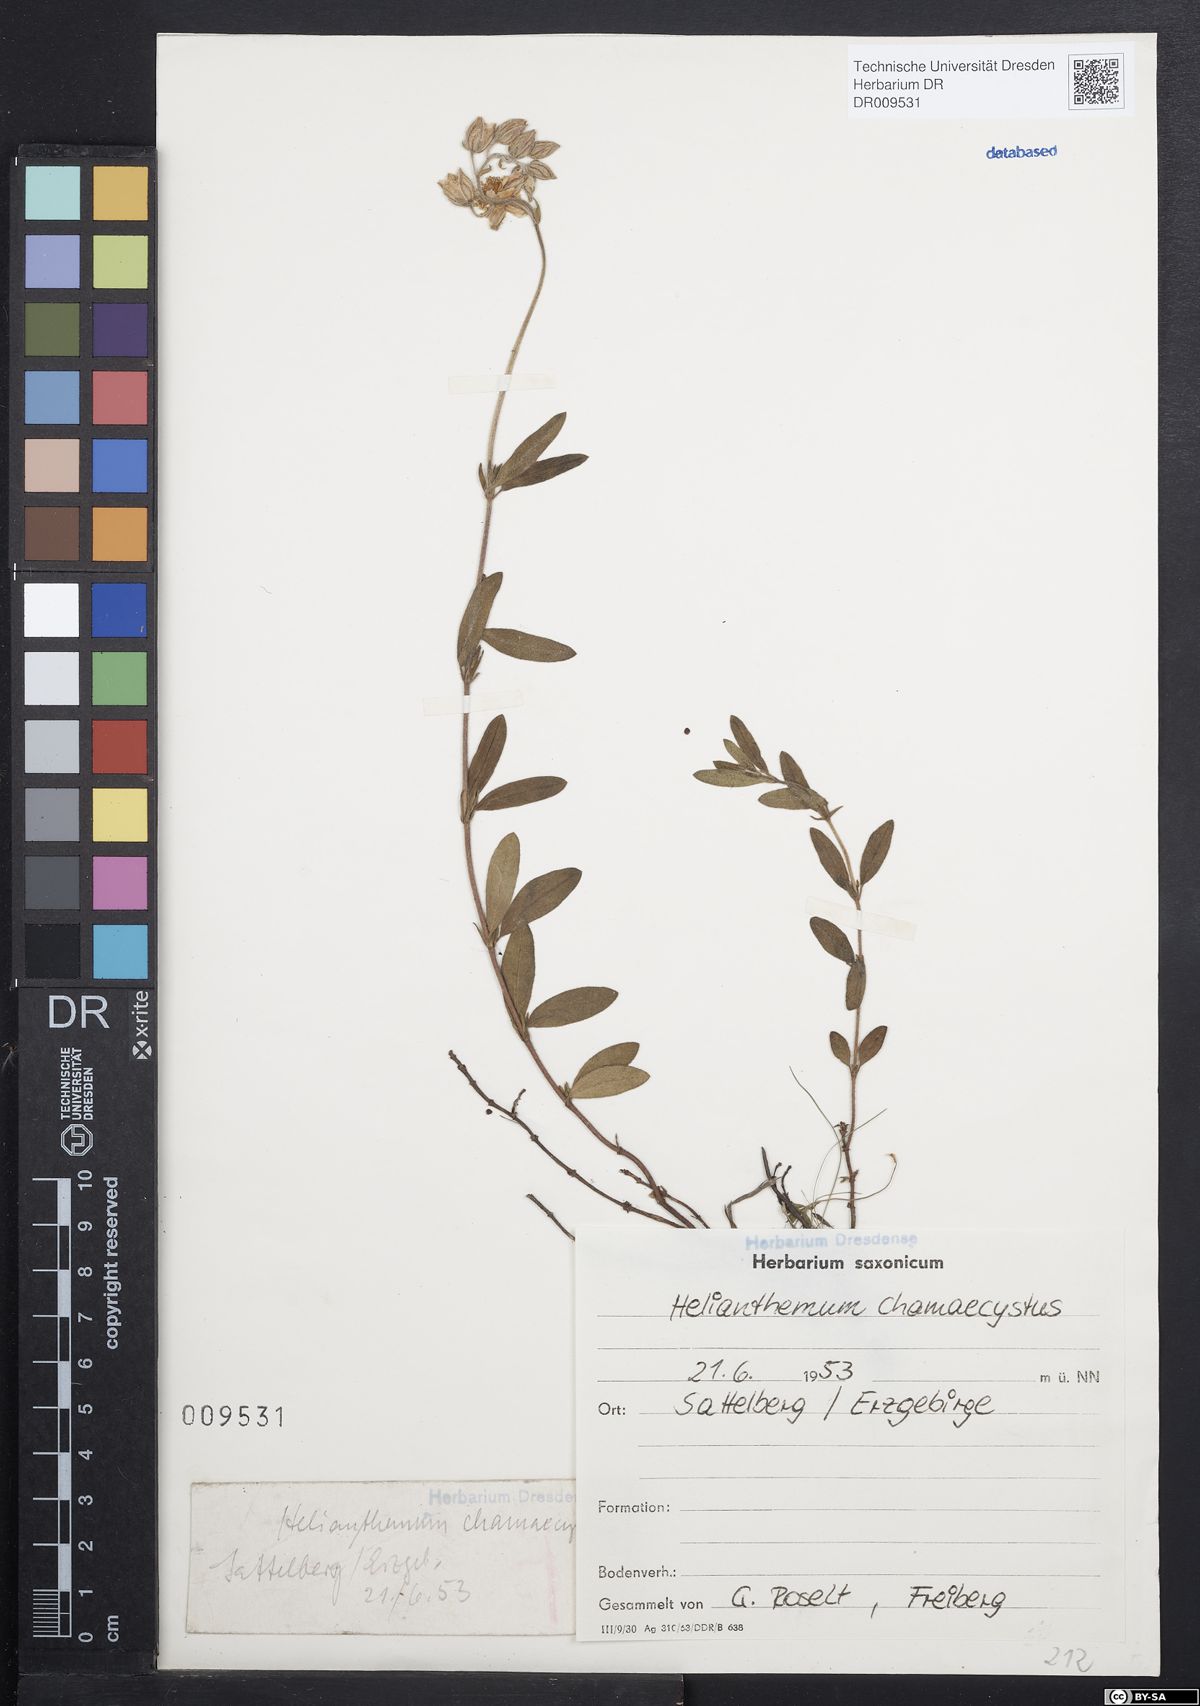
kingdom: Plantae
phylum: Tracheophyta
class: Magnoliopsida
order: Malvales
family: Cistaceae
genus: Helianthemum
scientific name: Helianthemum nummularium
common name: Common rock-rose
